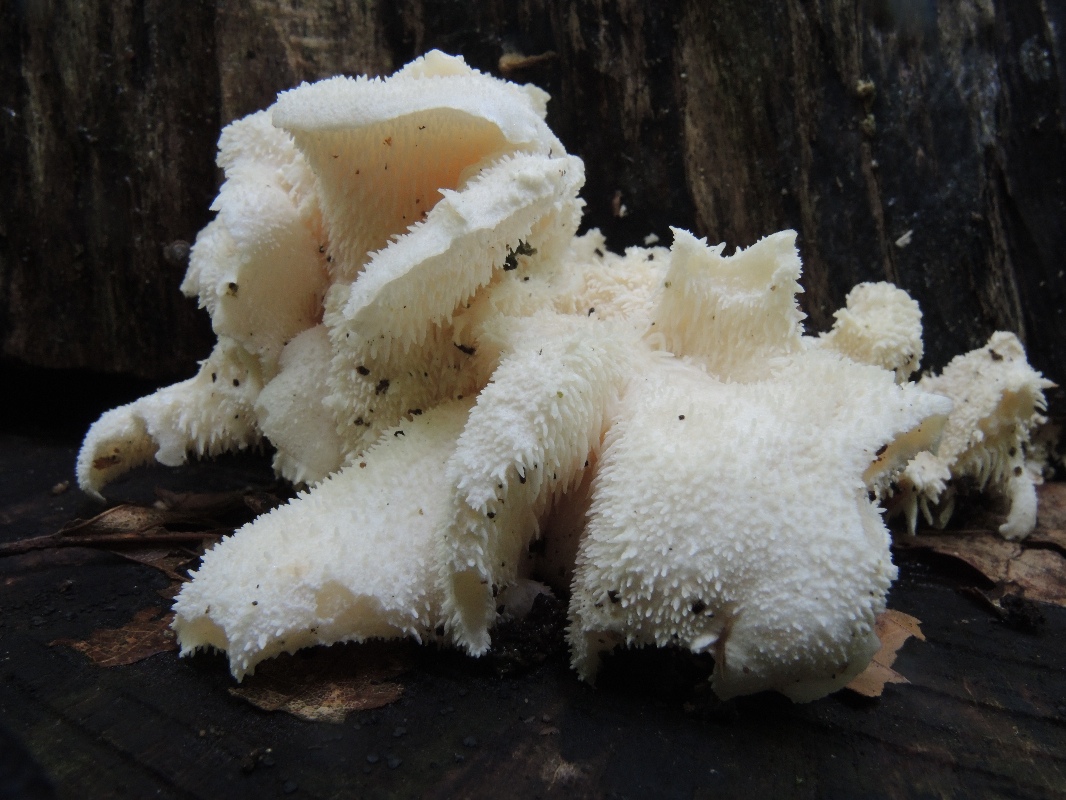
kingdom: Fungi
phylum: Basidiomycota
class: Agaricomycetes
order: Russulales
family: Hericiaceae
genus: Hericium
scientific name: Hericium cirrhatum
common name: børstepigsvamp
